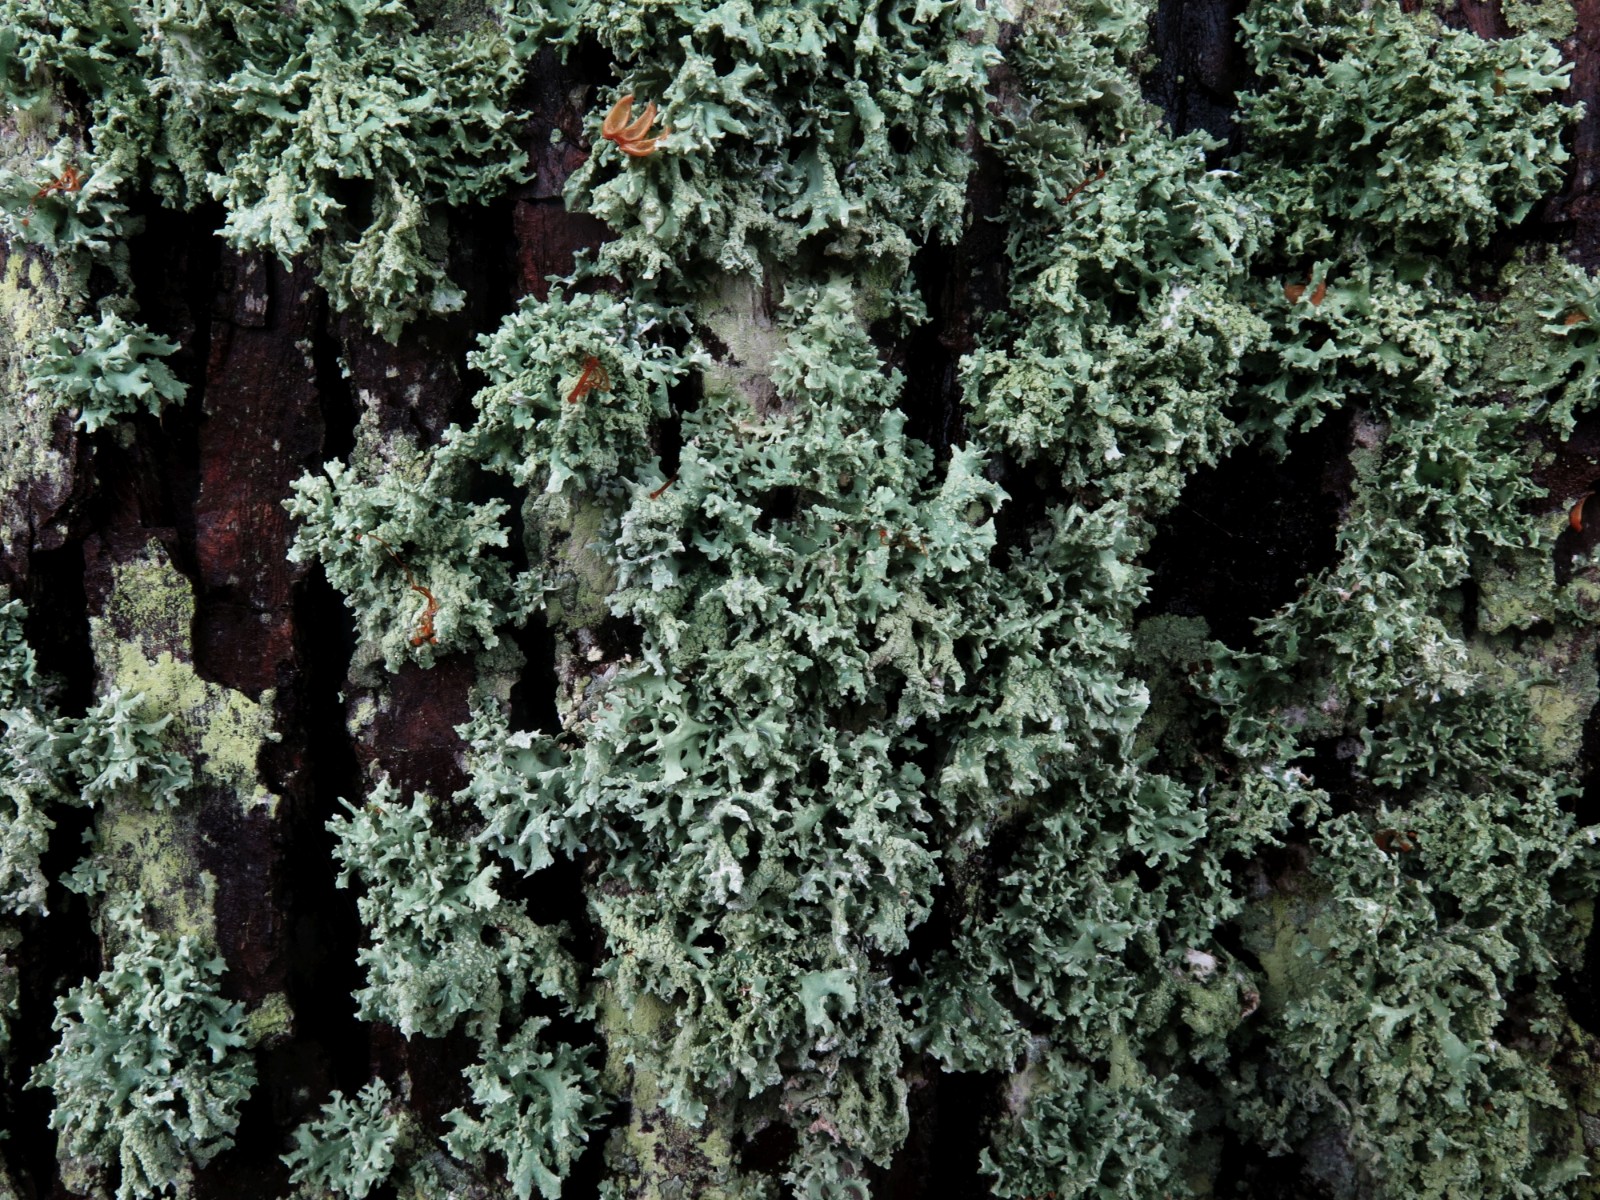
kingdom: Fungi
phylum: Ascomycota
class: Lecanoromycetes
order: Lecanorales
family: Parmeliaceae
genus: Evernia
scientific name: Evernia prunastri
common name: almindelig slåenlav
